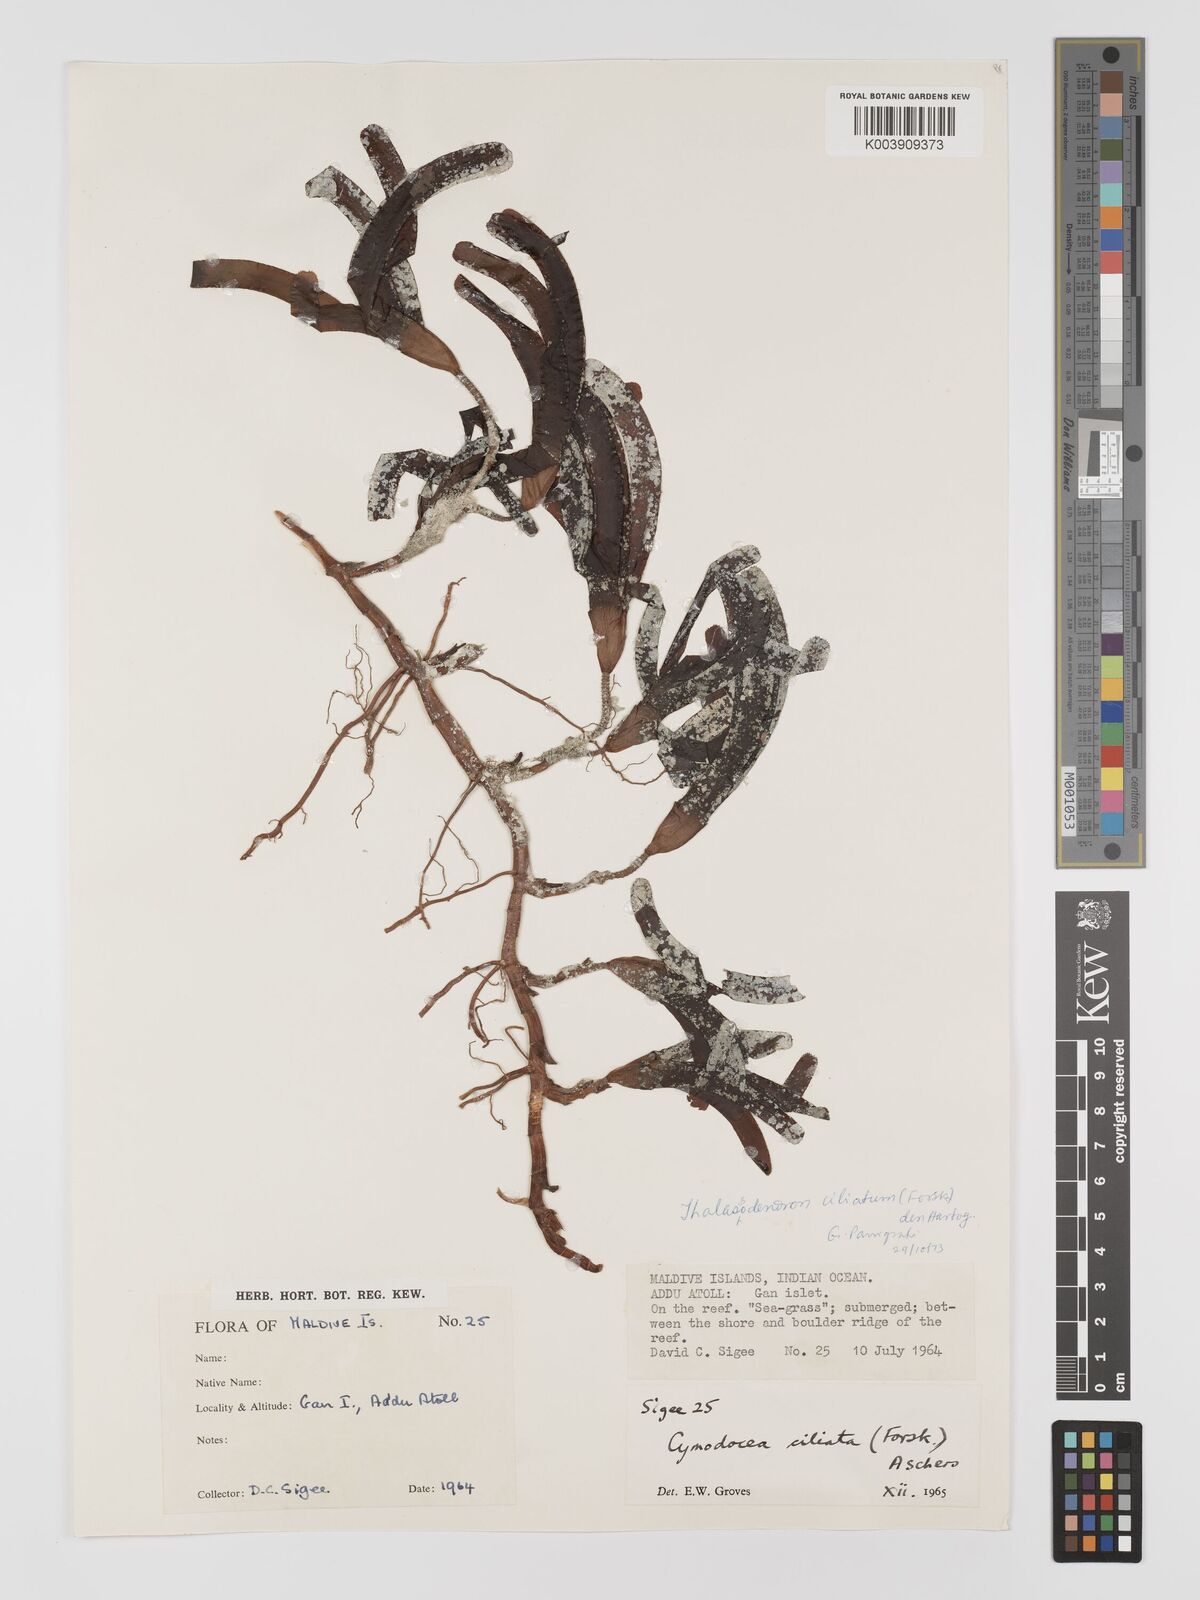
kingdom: Plantae
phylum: Tracheophyta
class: Liliopsida
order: Alismatales
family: Cymodoceaceae
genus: Cymodocea
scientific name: Cymodocea
